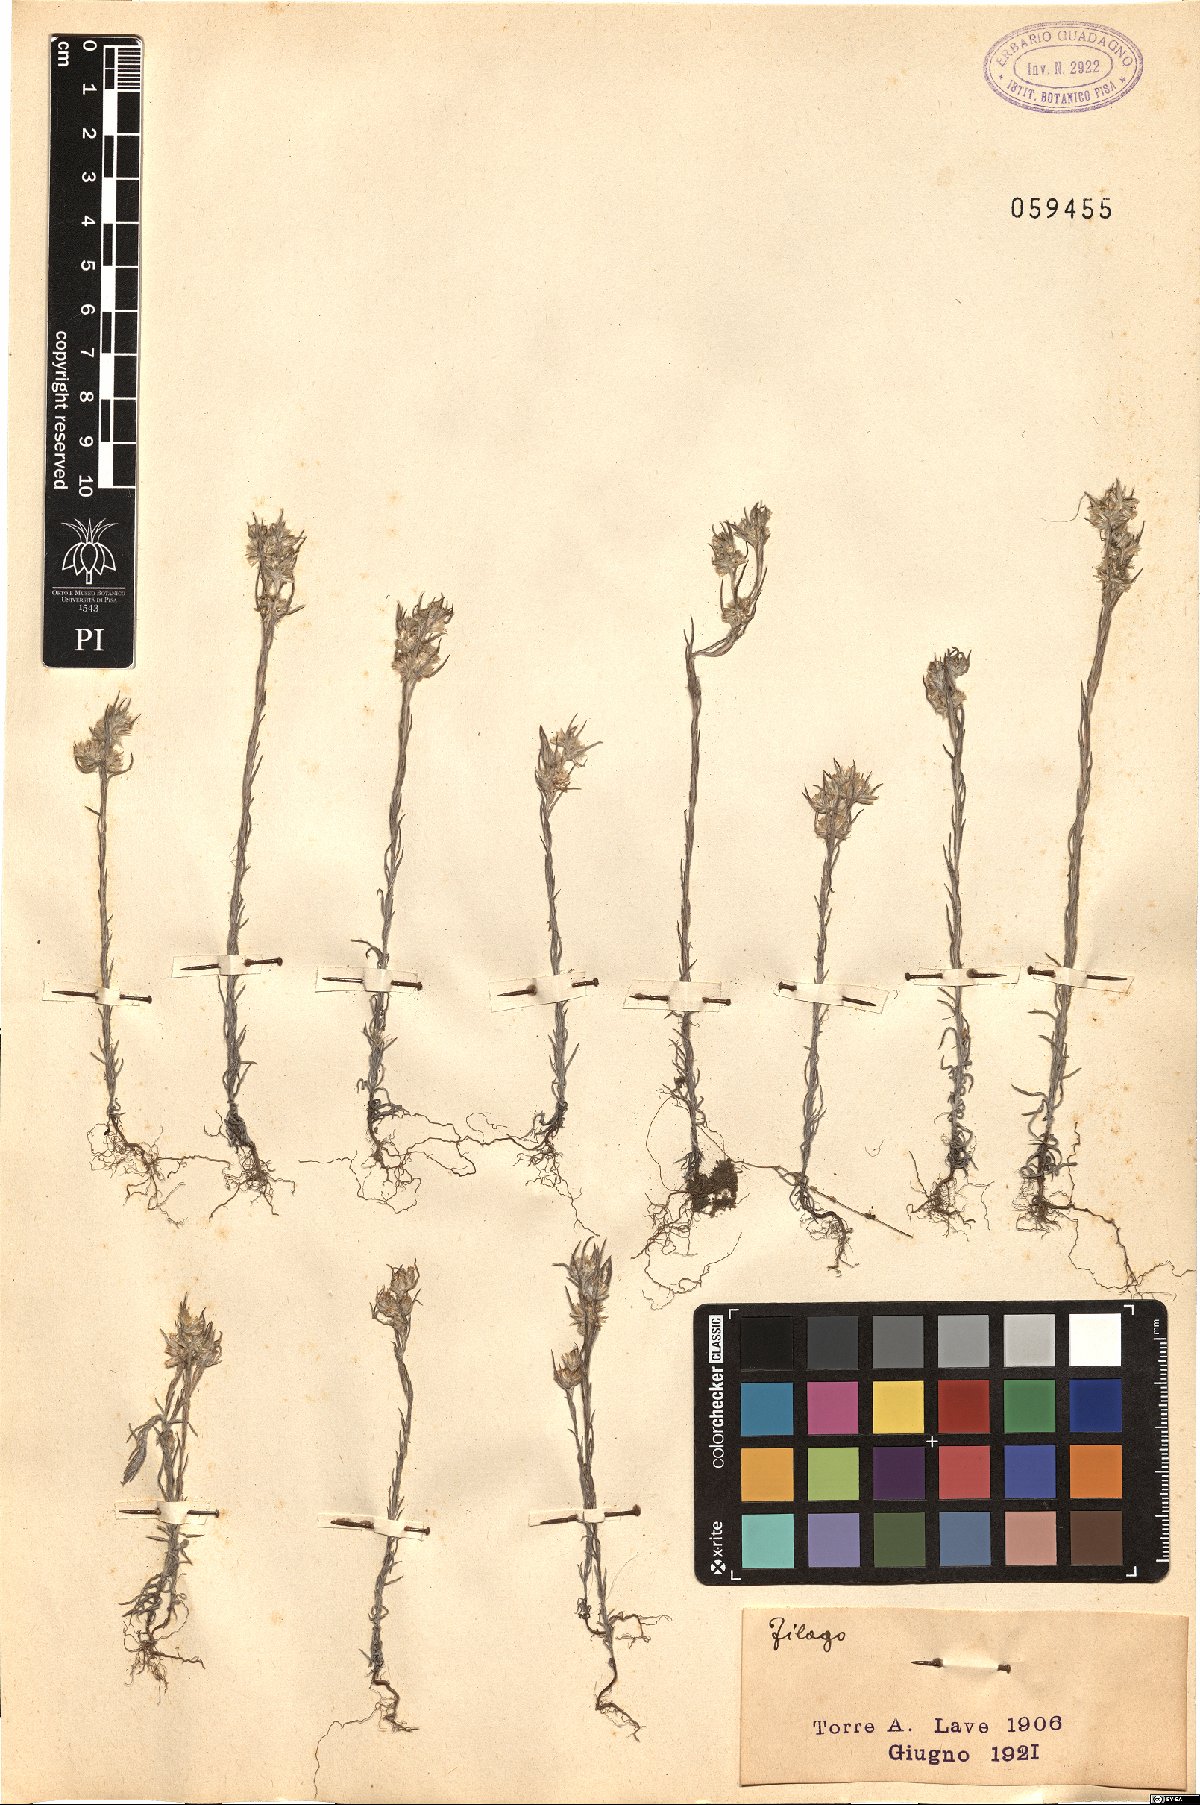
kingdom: Plantae
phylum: Tracheophyta
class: Magnoliopsida
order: Asterales
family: Asteraceae
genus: Filago
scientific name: Filago
